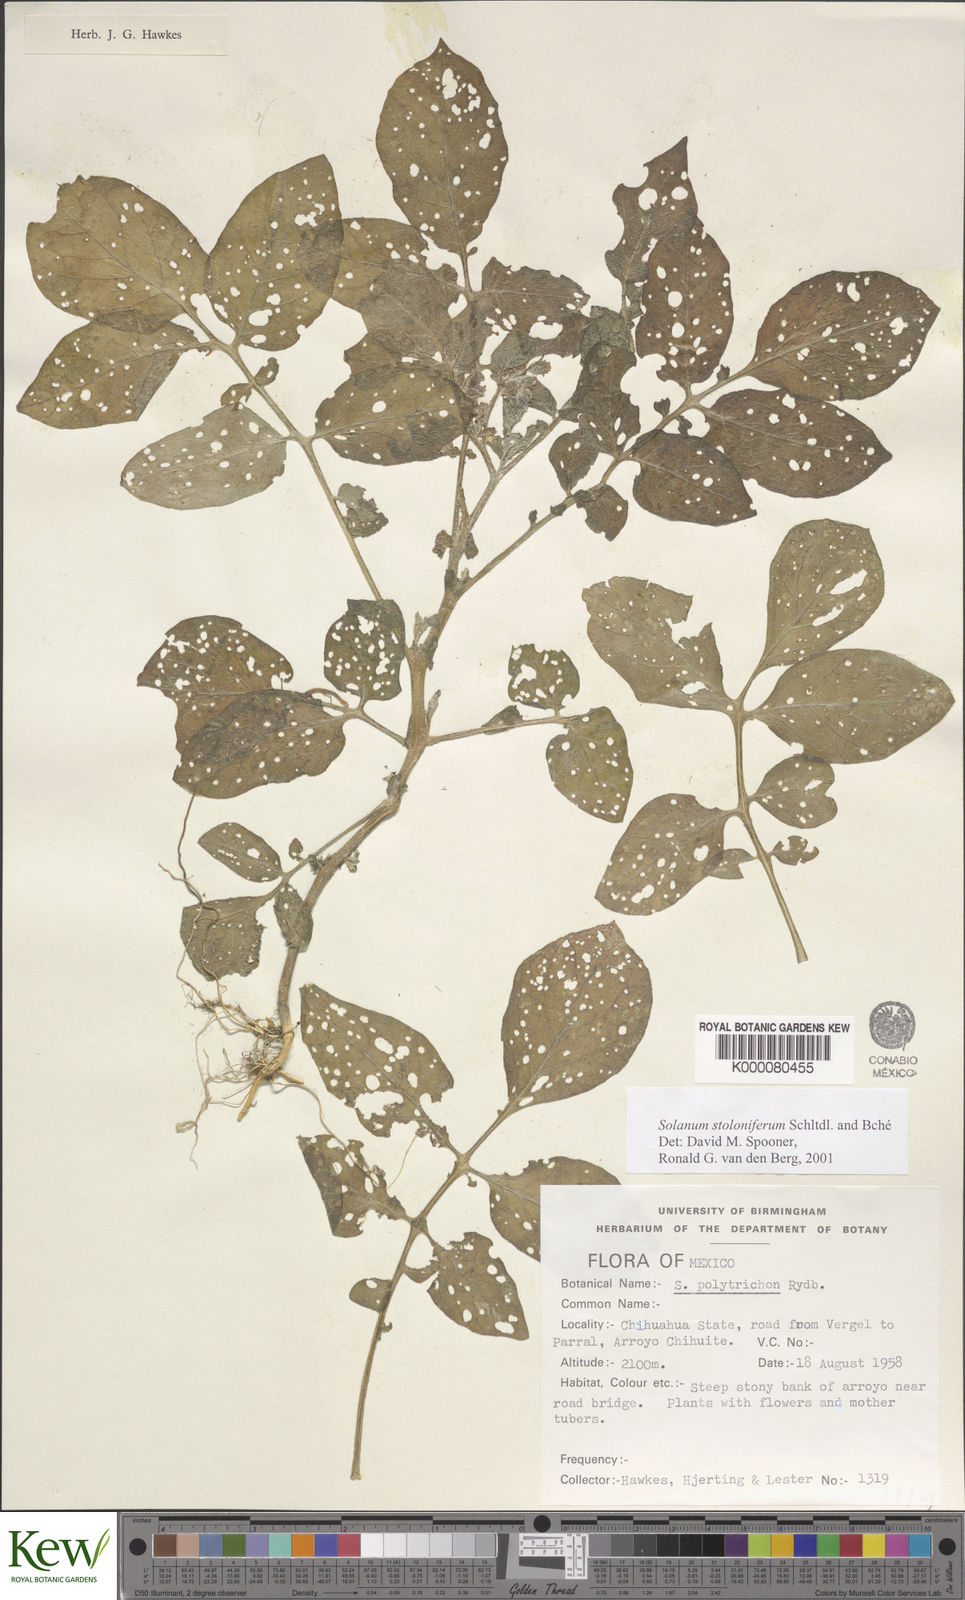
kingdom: Plantae
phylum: Tracheophyta
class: Magnoliopsida
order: Solanales
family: Solanaceae
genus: Solanum
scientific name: Solanum stoloniferum
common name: Fendler's nighshade
